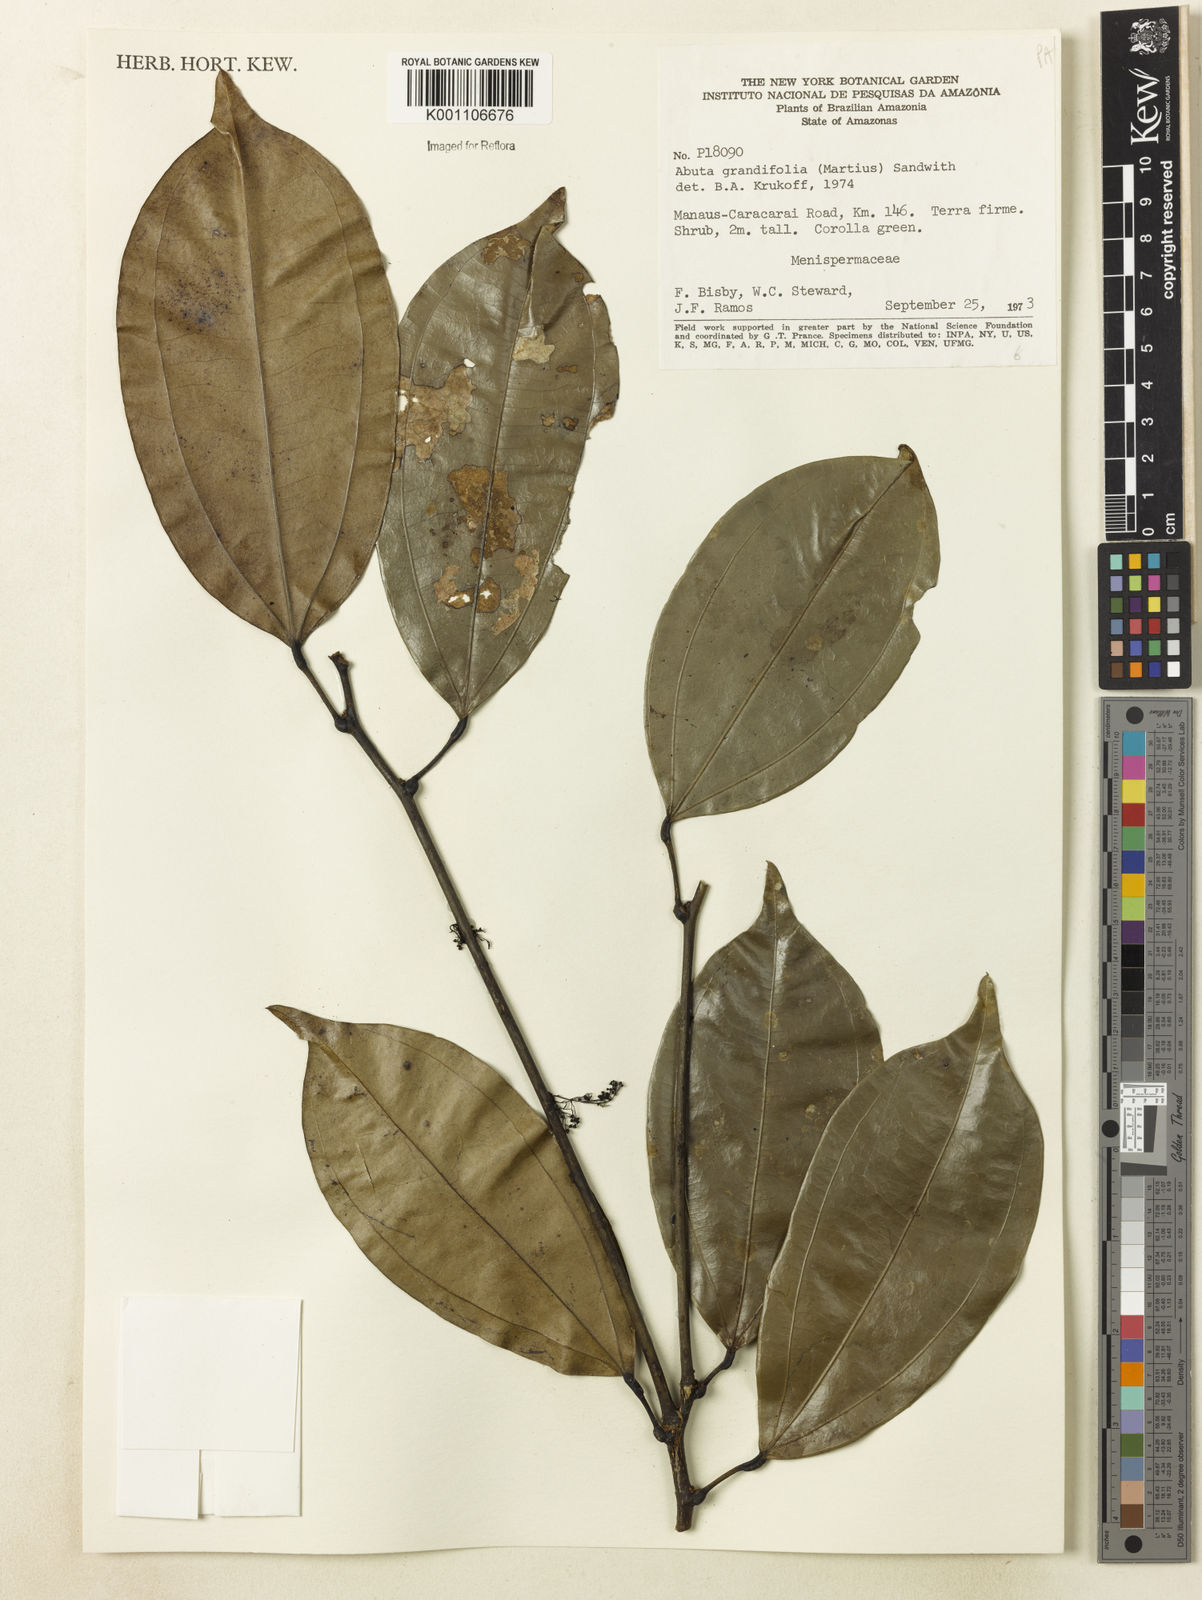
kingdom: Plantae
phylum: Tracheophyta
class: Magnoliopsida
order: Ranunculales
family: Menispermaceae
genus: Abuta
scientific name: Abuta grandifolia
